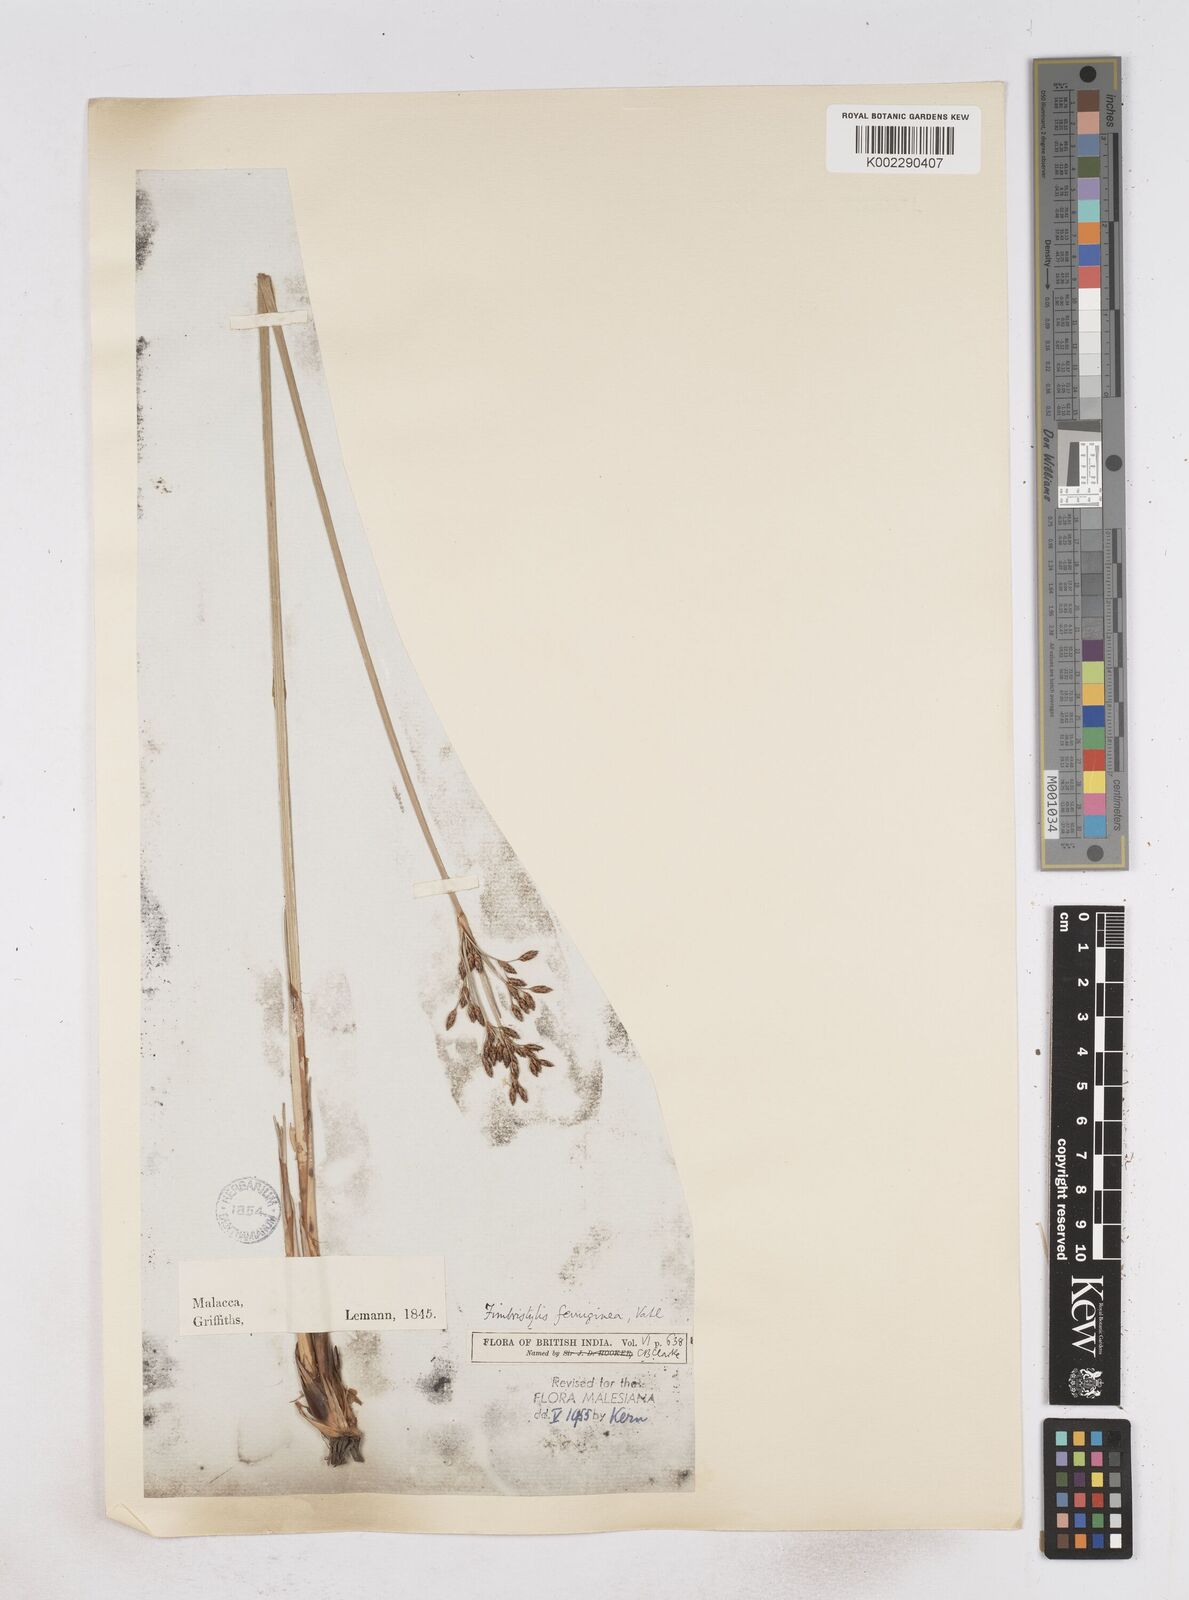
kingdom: Plantae
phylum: Tracheophyta
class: Liliopsida
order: Poales
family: Cyperaceae
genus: Fimbristylis
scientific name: Fimbristylis ferruginea
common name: West indian fimbry
